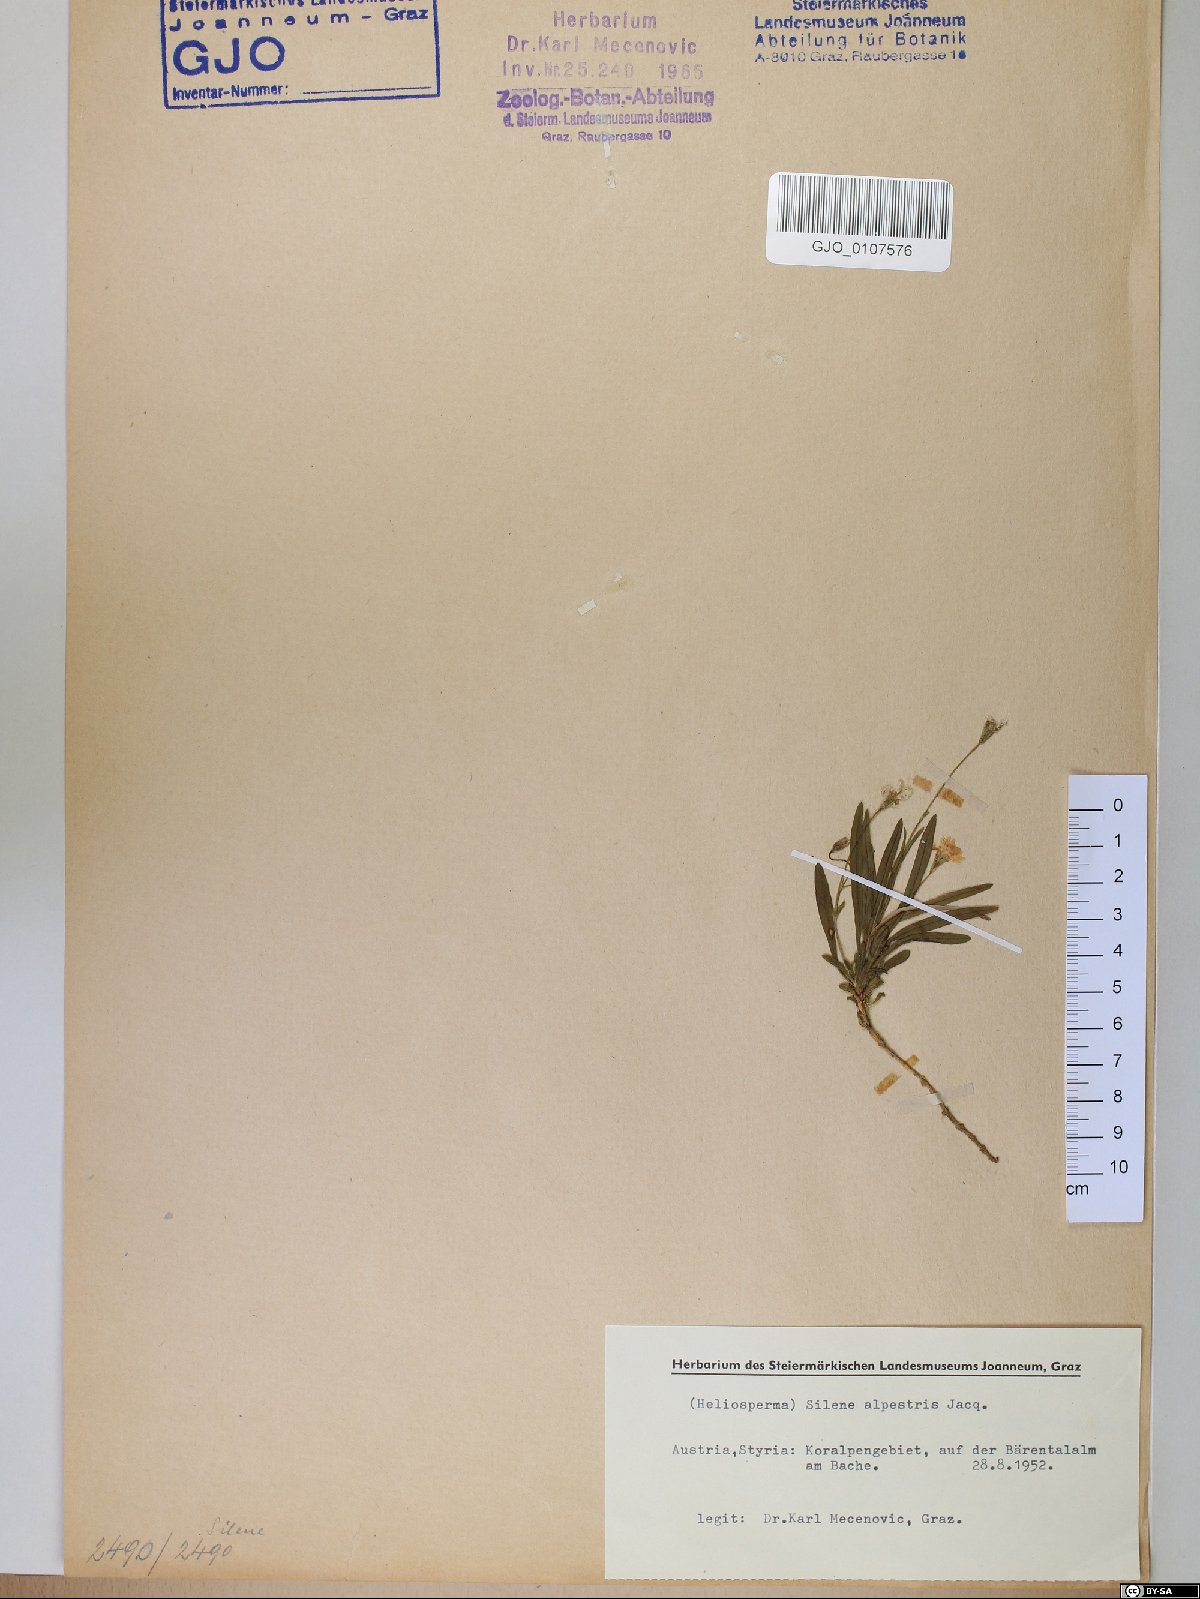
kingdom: Plantae
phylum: Tracheophyta
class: Magnoliopsida
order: Caryophyllales
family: Caryophyllaceae
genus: Heliosperma
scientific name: Heliosperma alpestre
